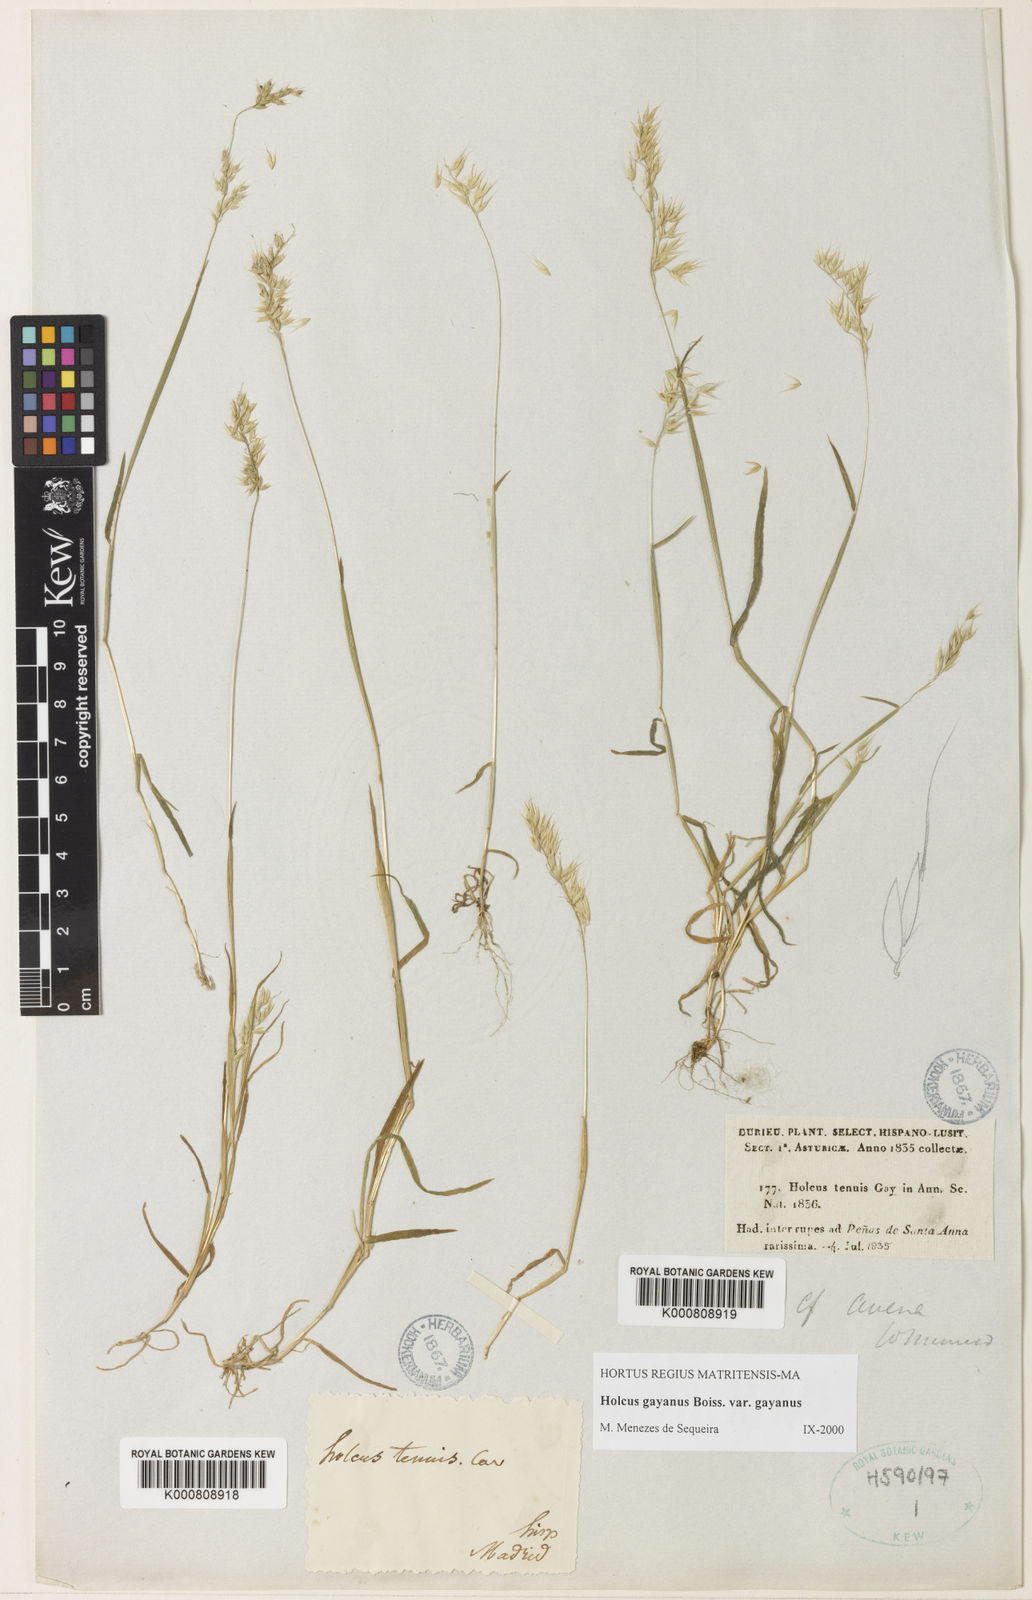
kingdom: Plantae
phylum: Tracheophyta
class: Liliopsida
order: Poales
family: Poaceae
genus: Holcus
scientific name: Holcus mollis
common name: Creeping velvetgrass
